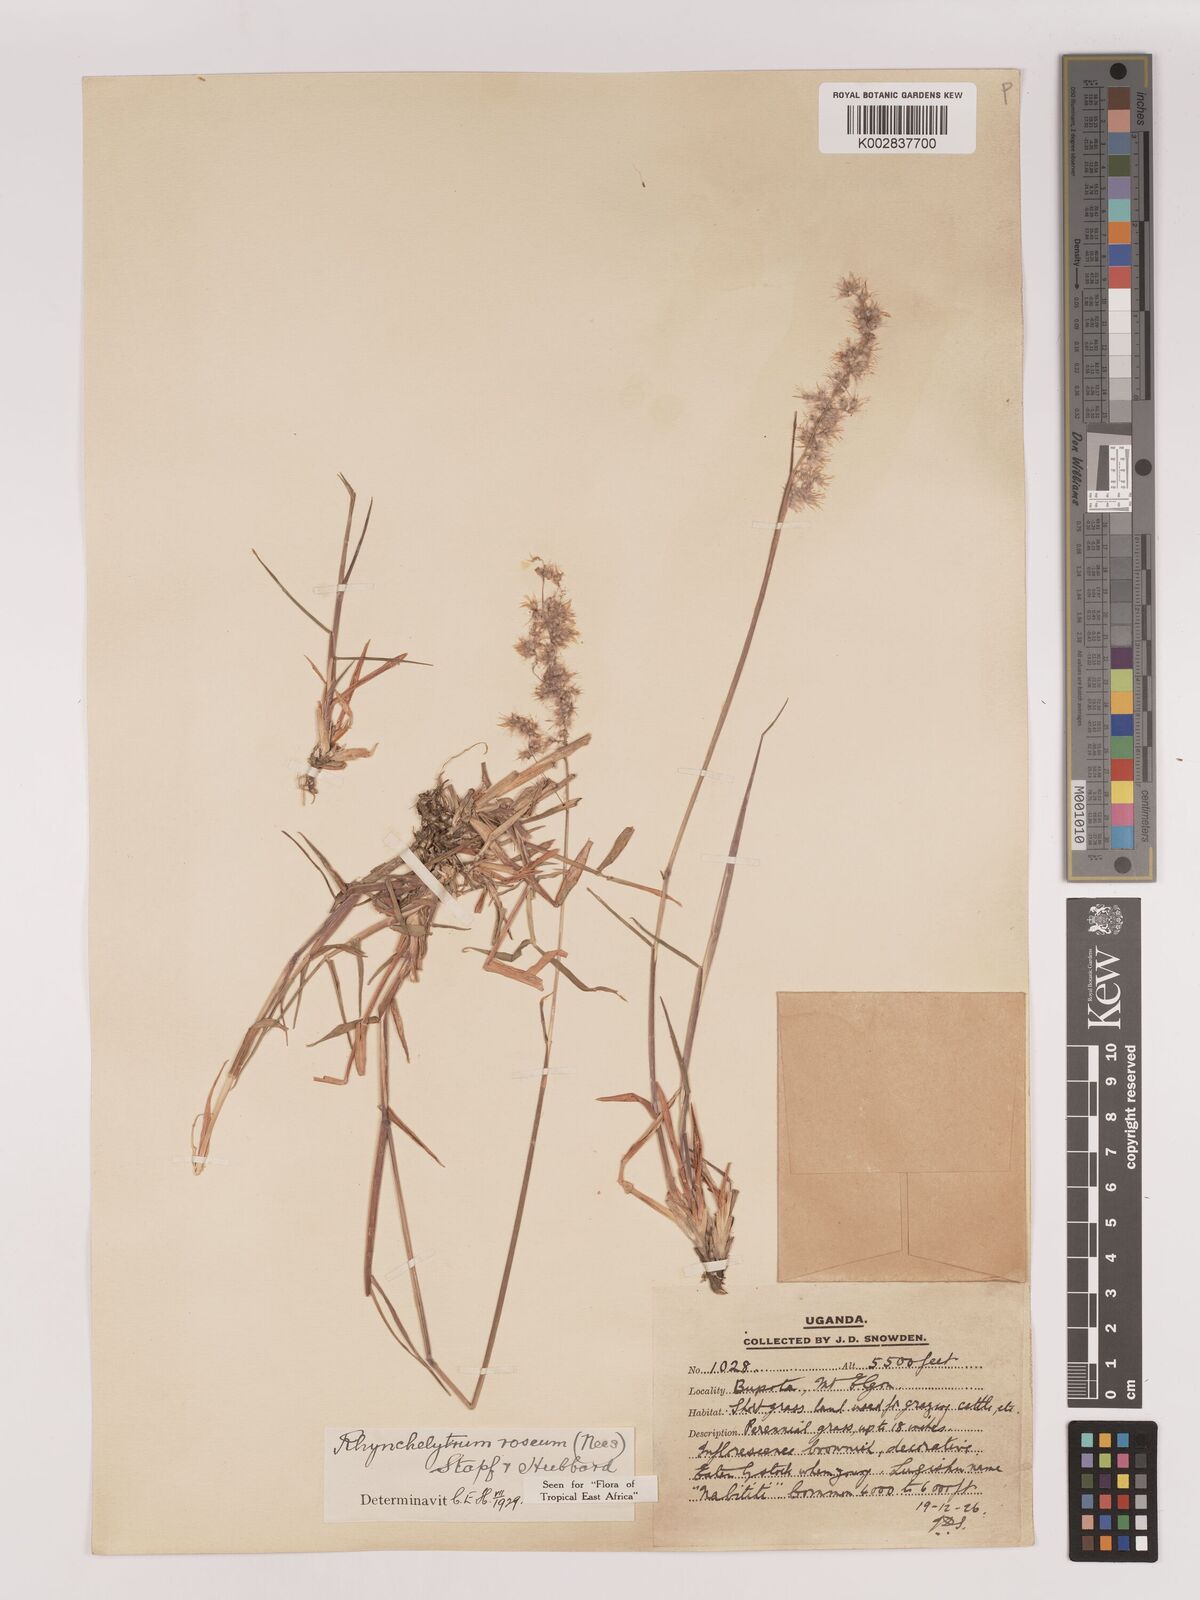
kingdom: Plantae
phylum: Tracheophyta
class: Liliopsida
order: Poales
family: Poaceae
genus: Melinis
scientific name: Melinis repens
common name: Rose natal grass
